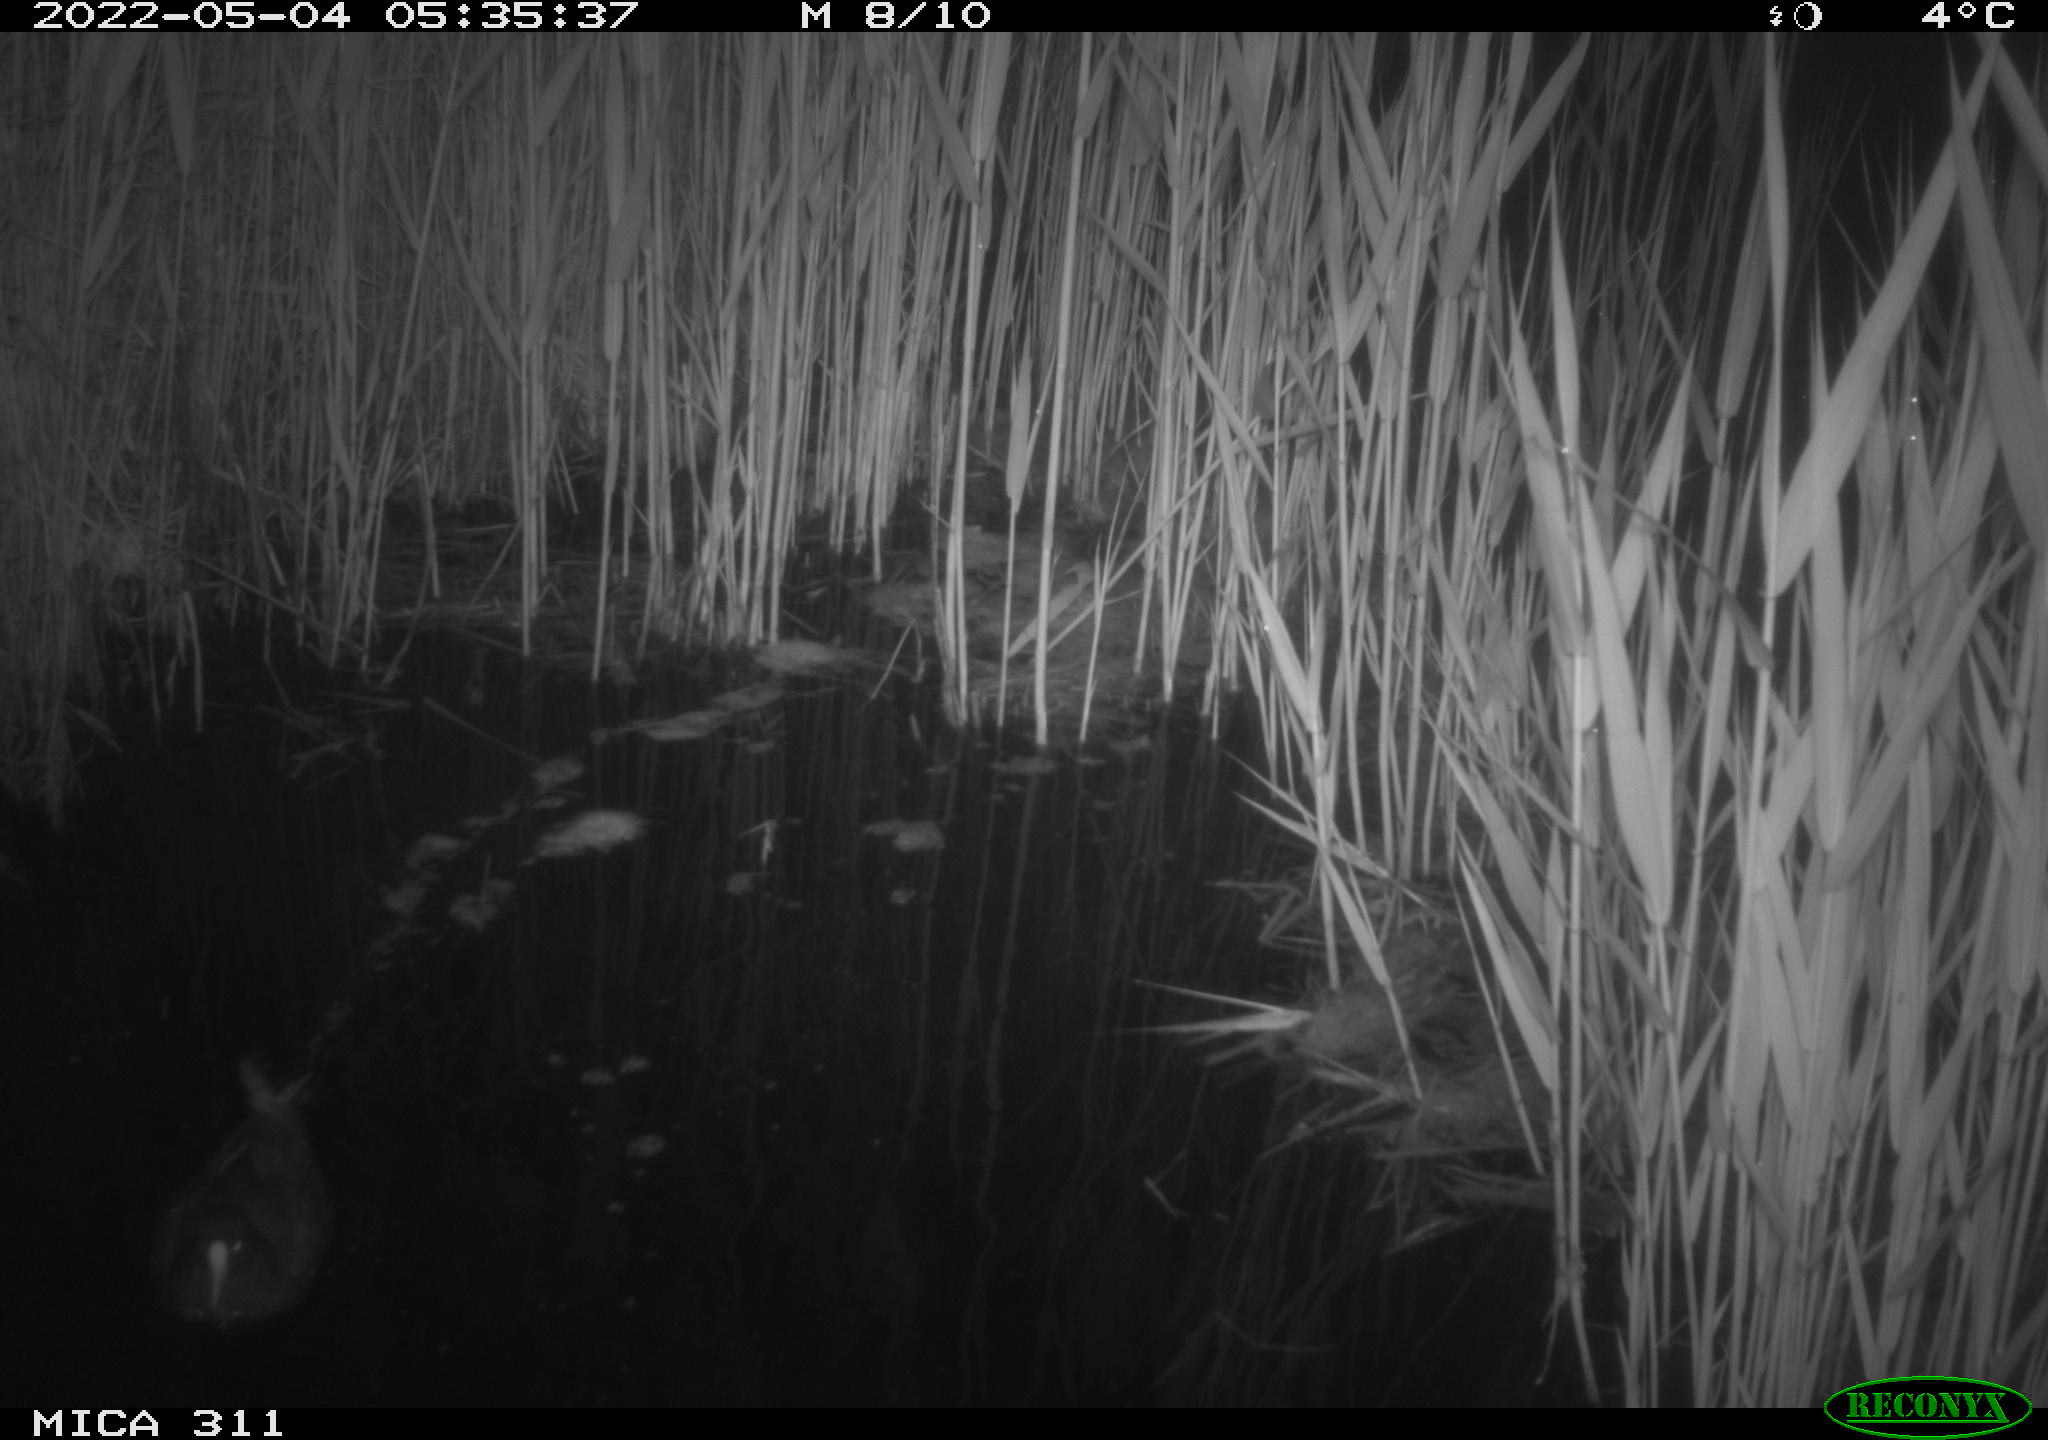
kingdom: Animalia
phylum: Chordata
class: Aves
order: Gruiformes
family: Rallidae
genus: Gallinula
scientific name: Gallinula chloropus
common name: Common moorhen
